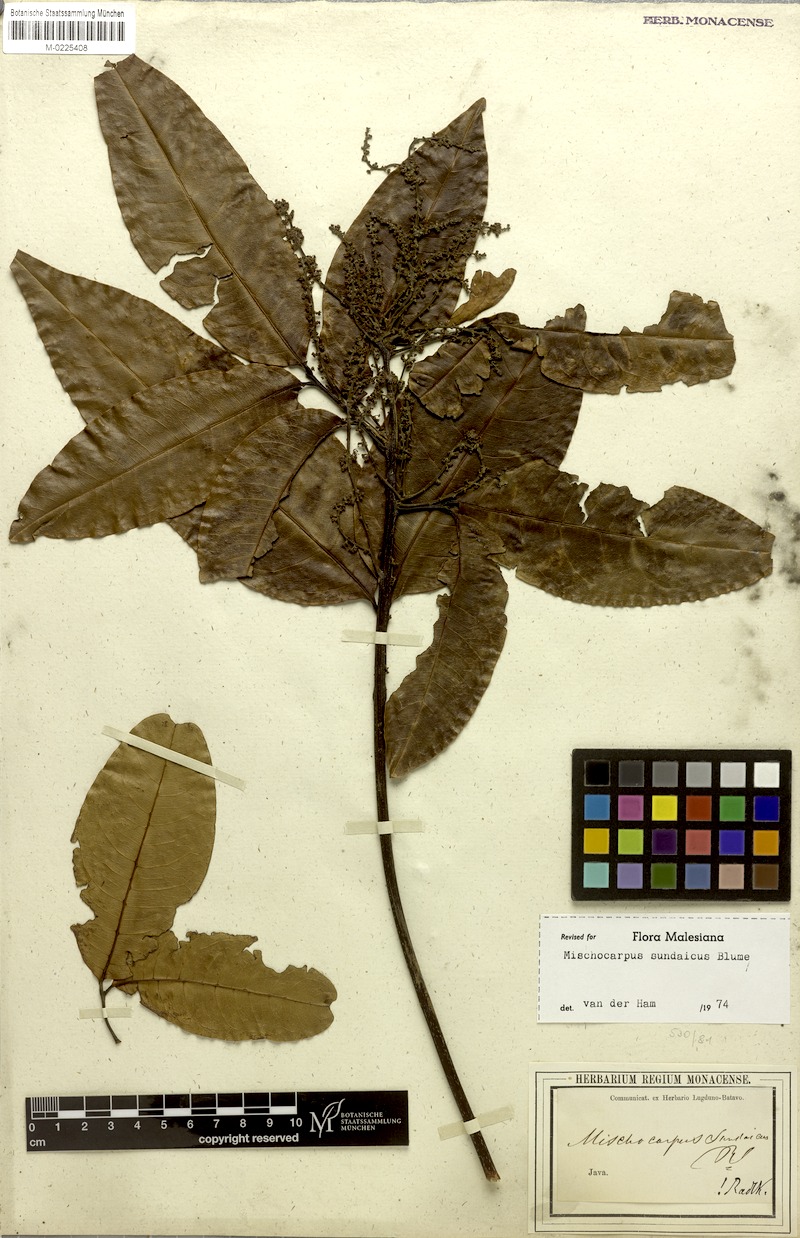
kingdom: Plantae
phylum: Tracheophyta
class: Magnoliopsida
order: Sapindales
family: Sapindaceae
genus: Mischocarpus
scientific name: Mischocarpus sundaicus
